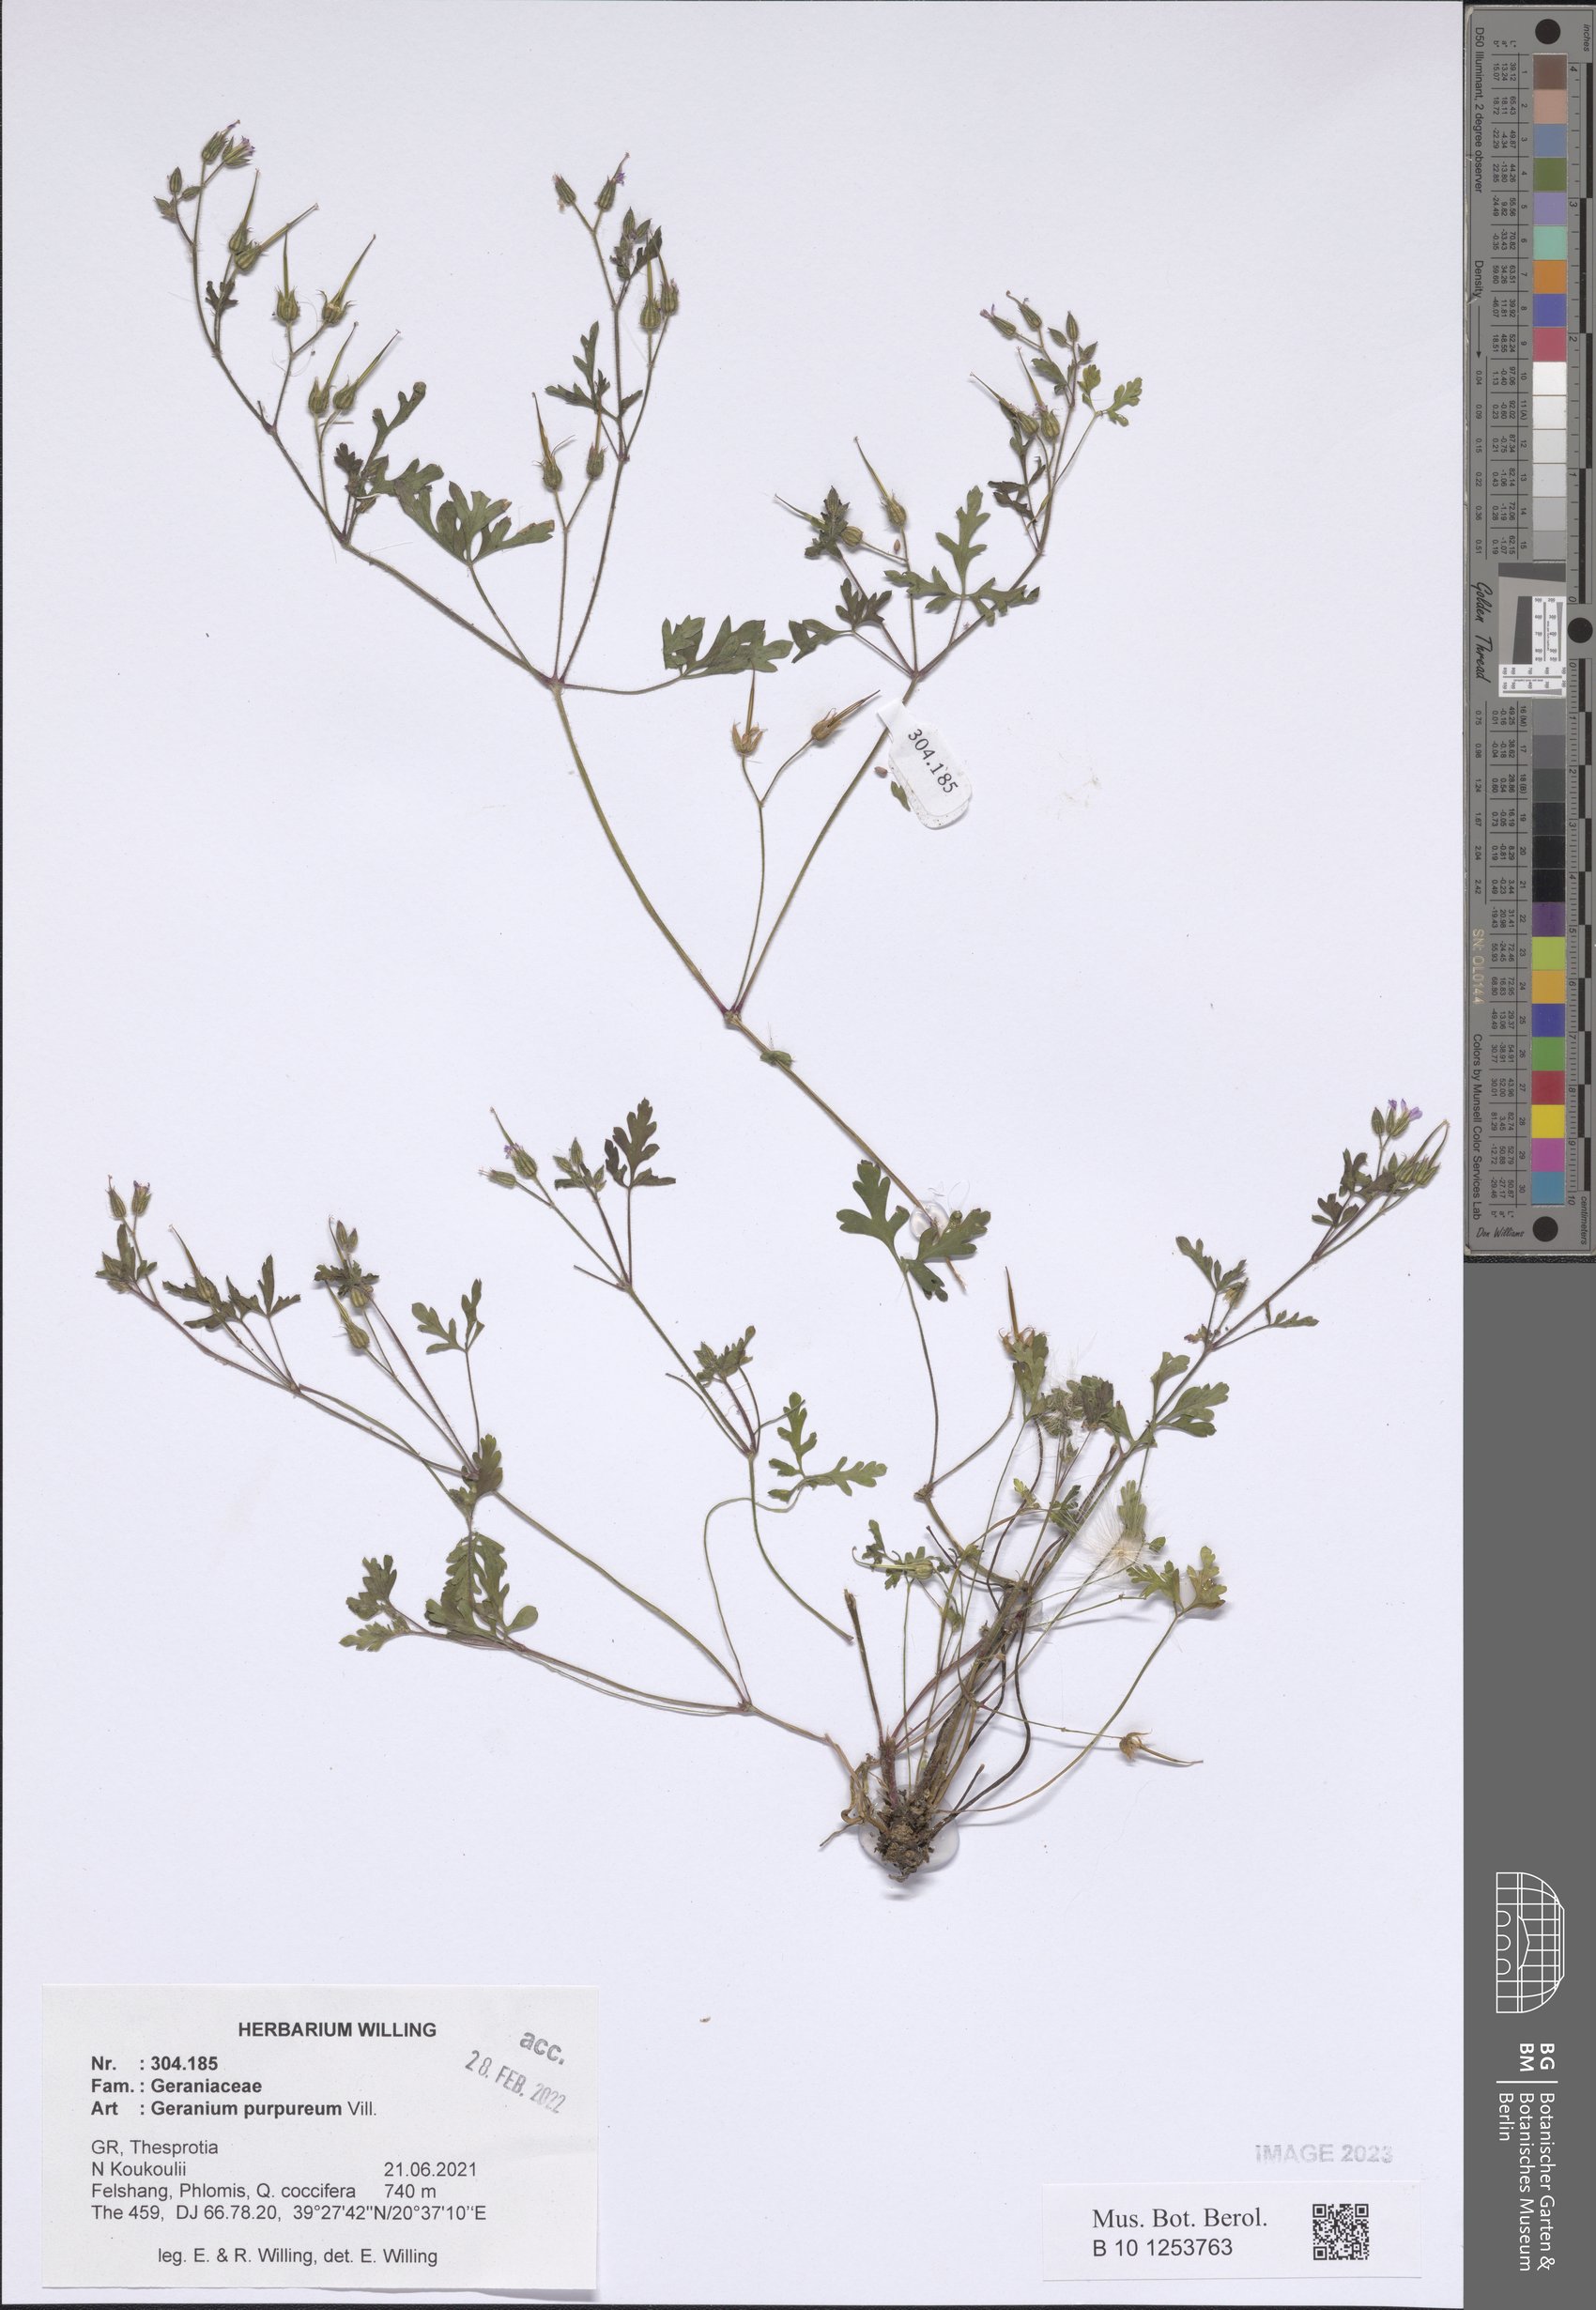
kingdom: Plantae
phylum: Tracheophyta
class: Magnoliopsida
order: Geraniales
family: Geraniaceae
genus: Geranium
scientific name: Geranium purpureum
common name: Little-robin
